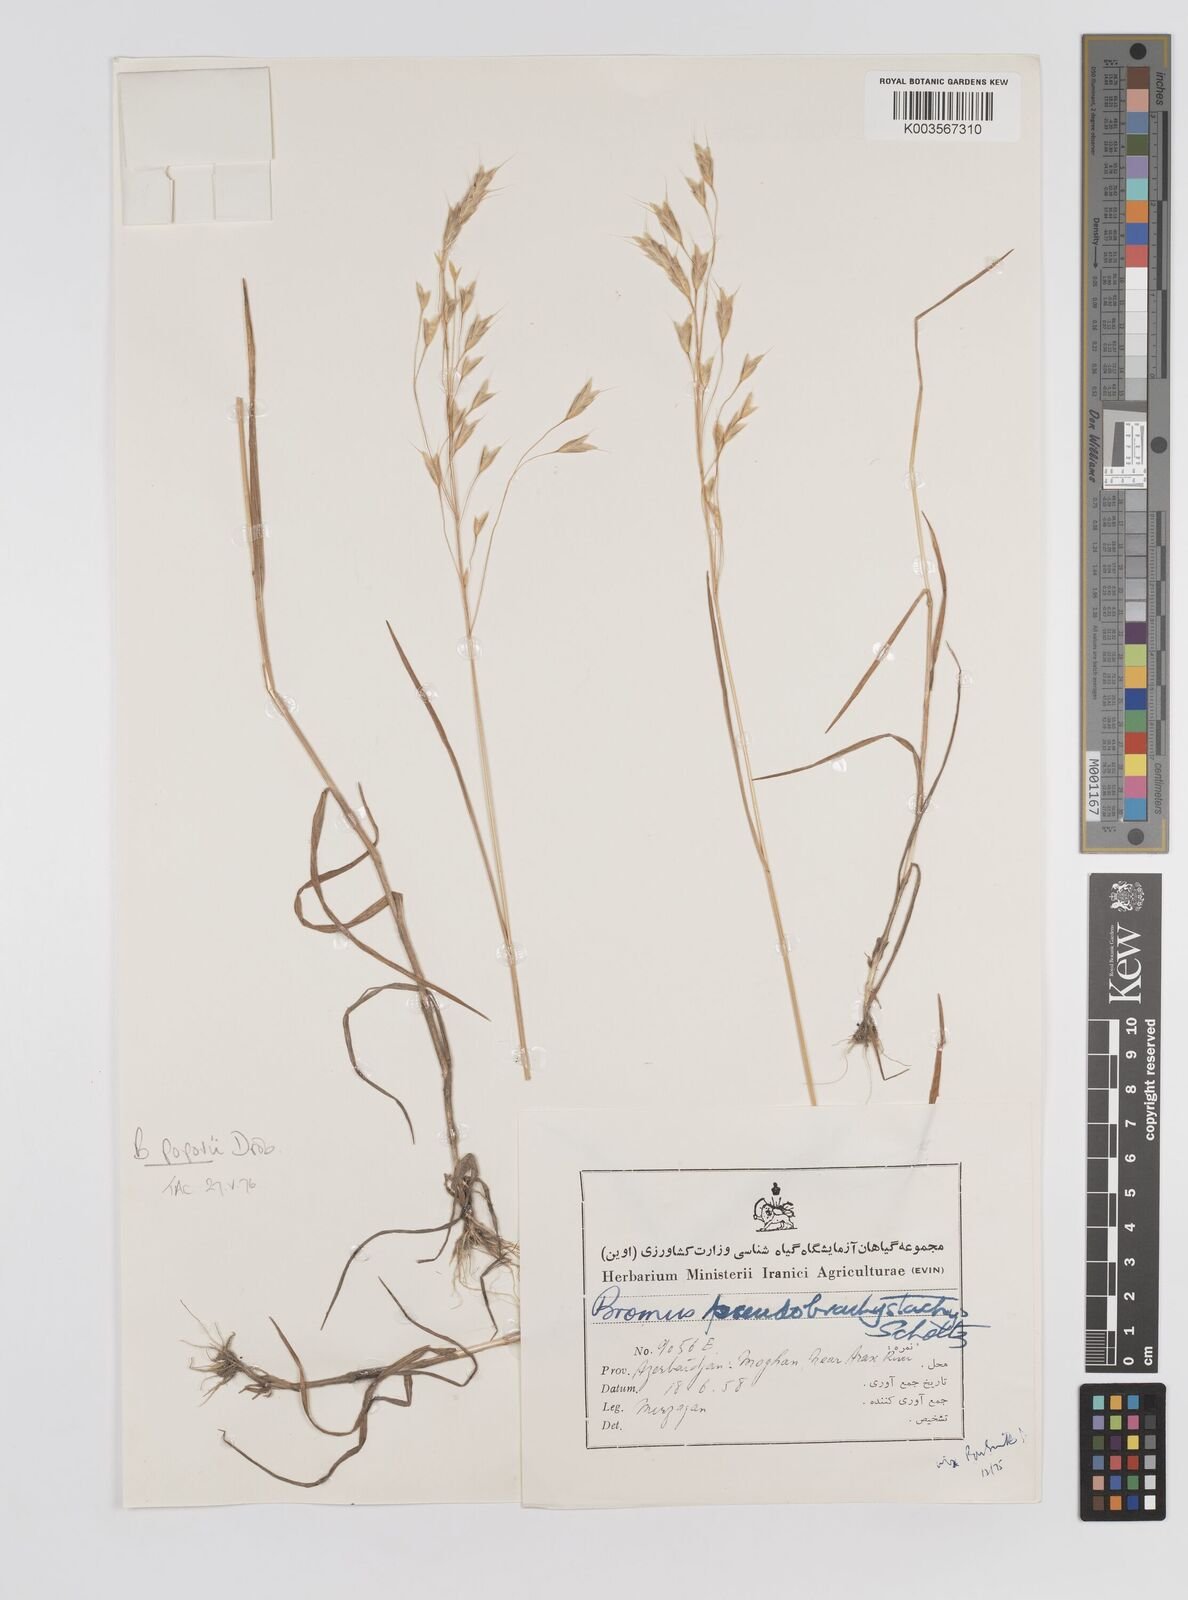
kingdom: Plantae
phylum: Tracheophyta
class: Liliopsida
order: Poales
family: Poaceae
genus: Bromus
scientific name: Bromus racemosus
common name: Bald brome
